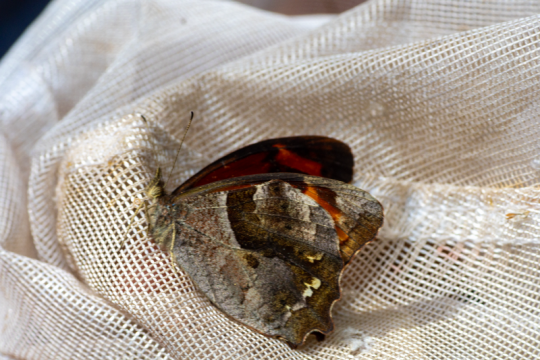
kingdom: Animalia
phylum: Arthropoda
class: Insecta
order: Lepidoptera
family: Nymphalidae
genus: Lasiophila
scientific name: Lasiophila orbifera
